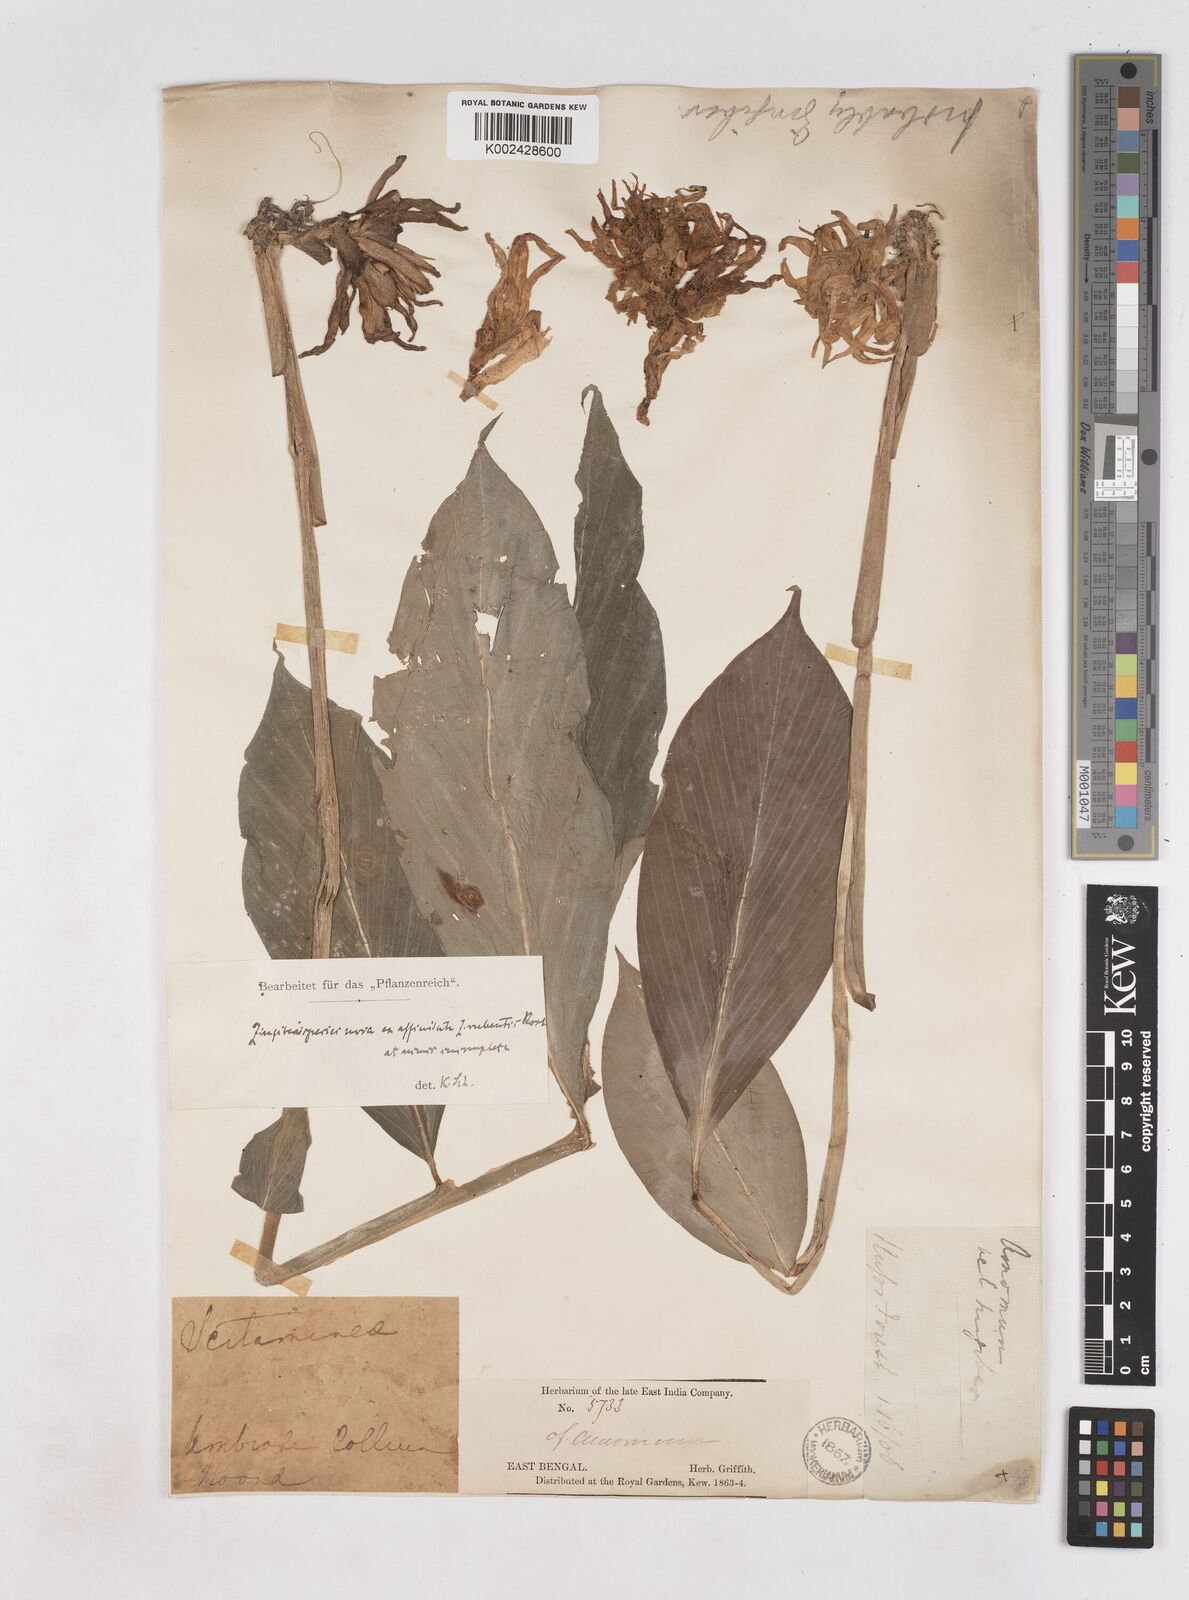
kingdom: Plantae
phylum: Tracheophyta
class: Liliopsida
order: Zingiberales
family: Zingiberaceae
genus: Zingiber
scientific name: Zingiber rubens
